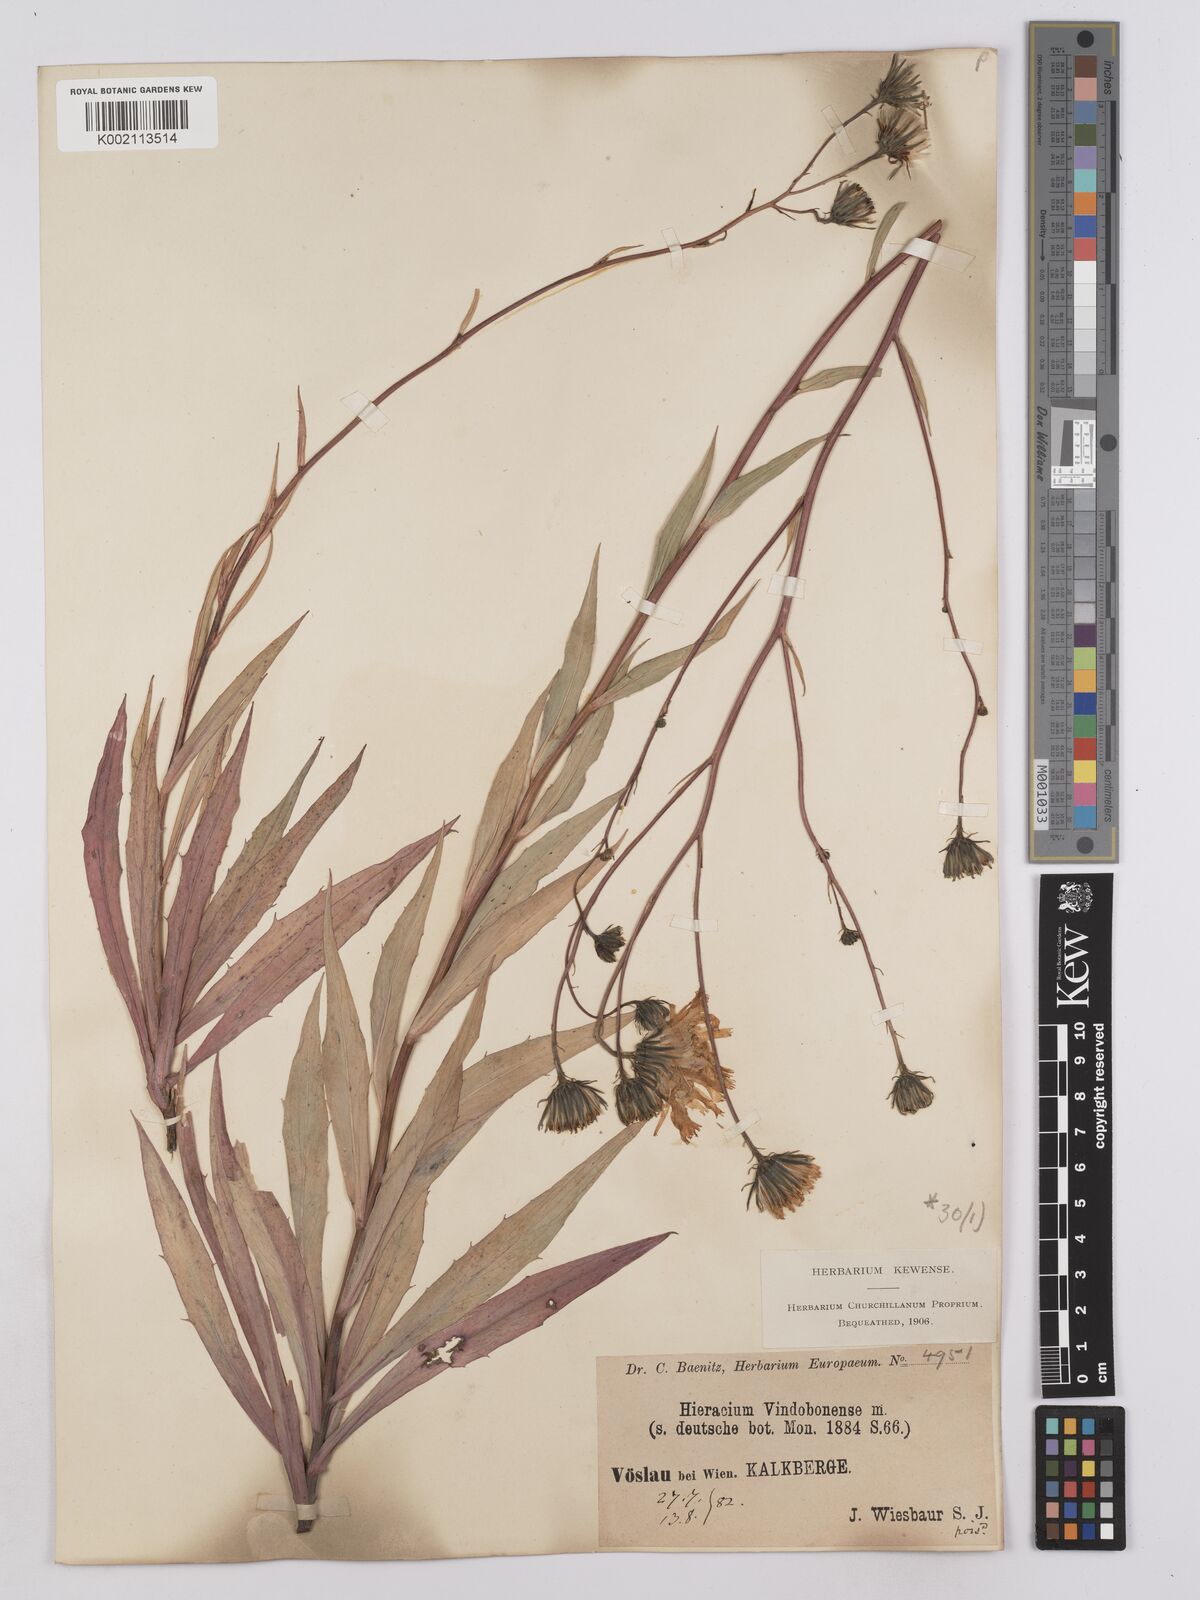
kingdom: Plantae
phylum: Tracheophyta
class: Magnoliopsida
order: Asterales
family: Asteraceae
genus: Hieracium
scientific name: Hieracium vindobonense
